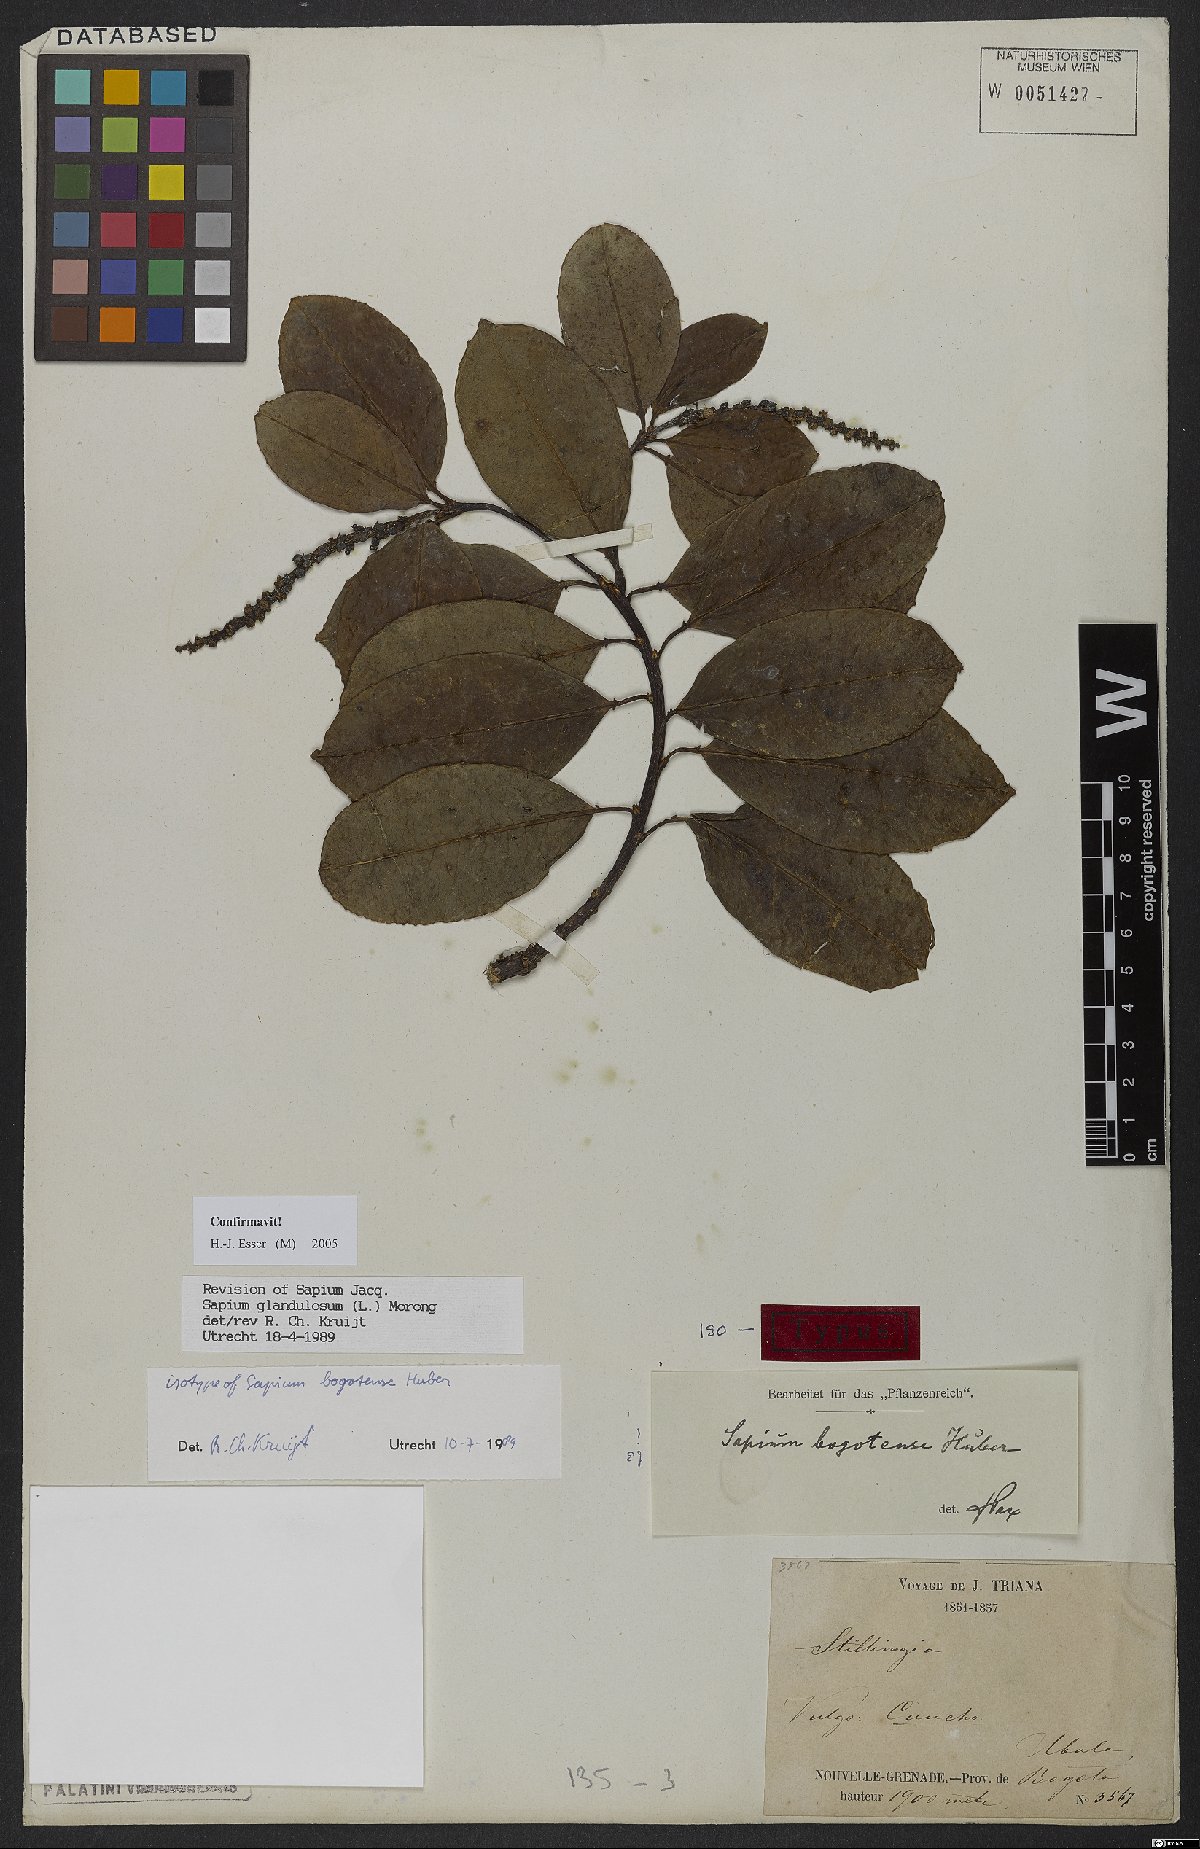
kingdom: Plantae
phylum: Tracheophyta
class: Magnoliopsida
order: Malpighiales
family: Euphorbiaceae
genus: Sapium
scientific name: Sapium glandulosum
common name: Milktree
